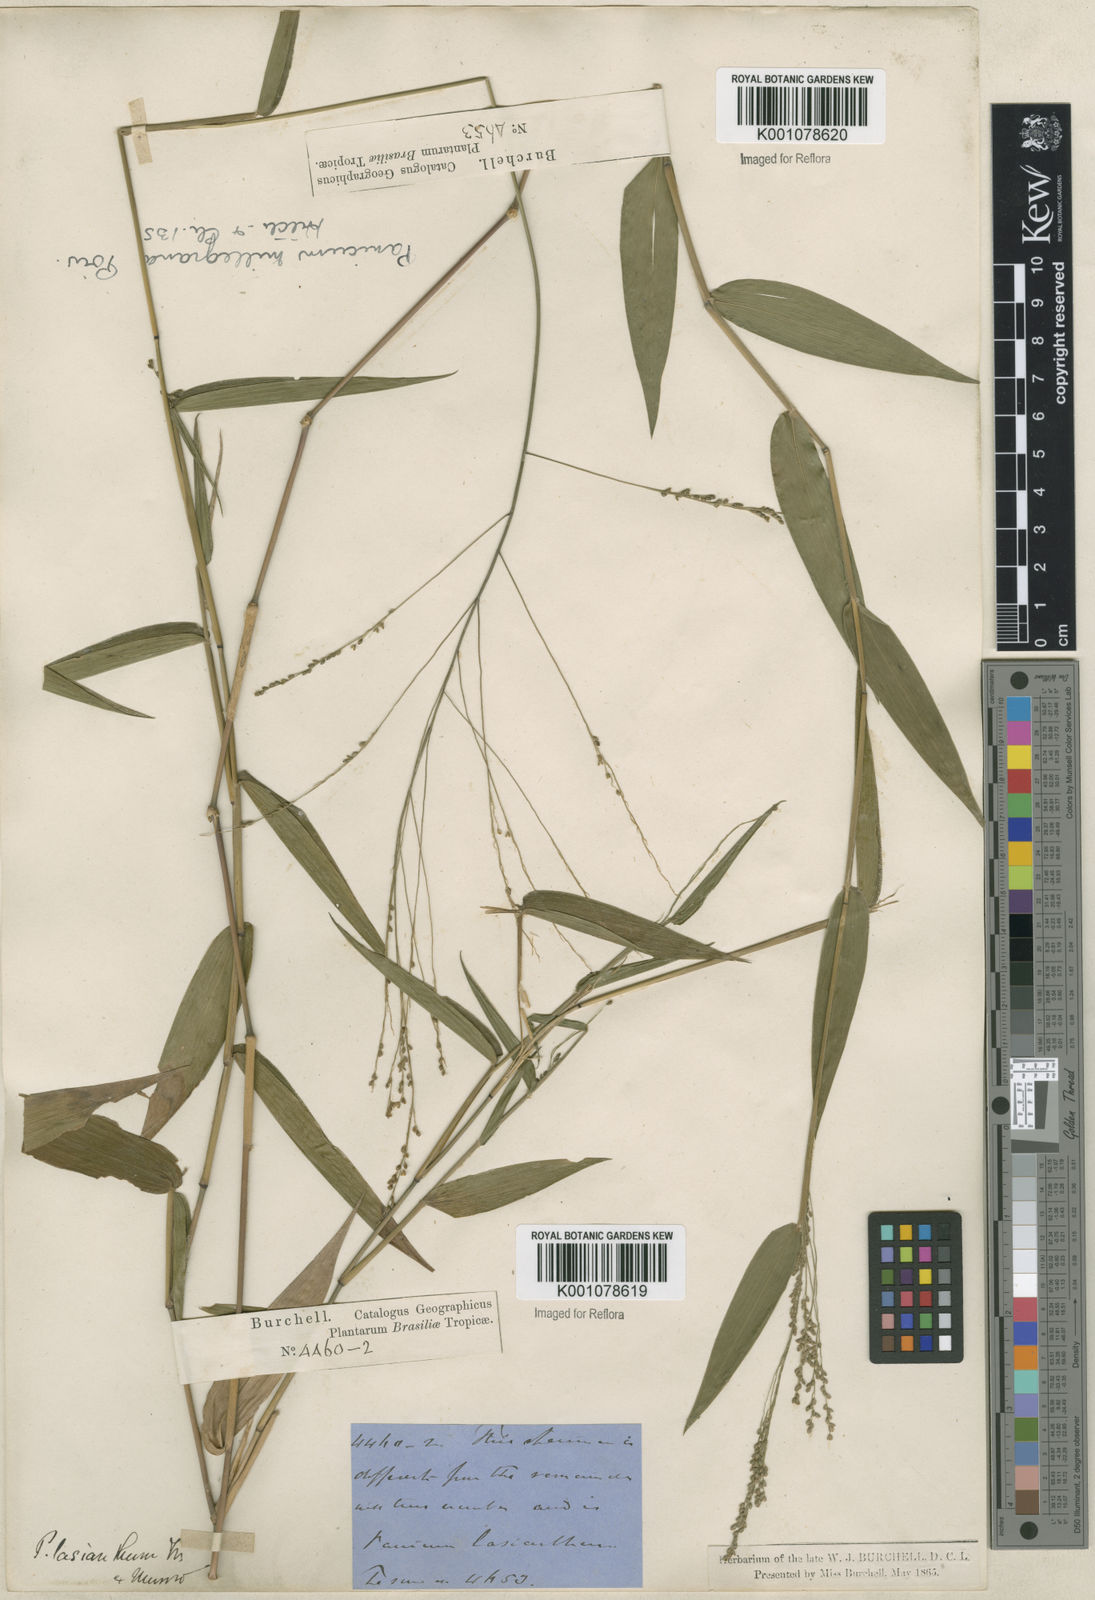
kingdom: Plantae
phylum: Tracheophyta
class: Liliopsida
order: Poales
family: Poaceae
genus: Panicum
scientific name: Panicum sellowii
